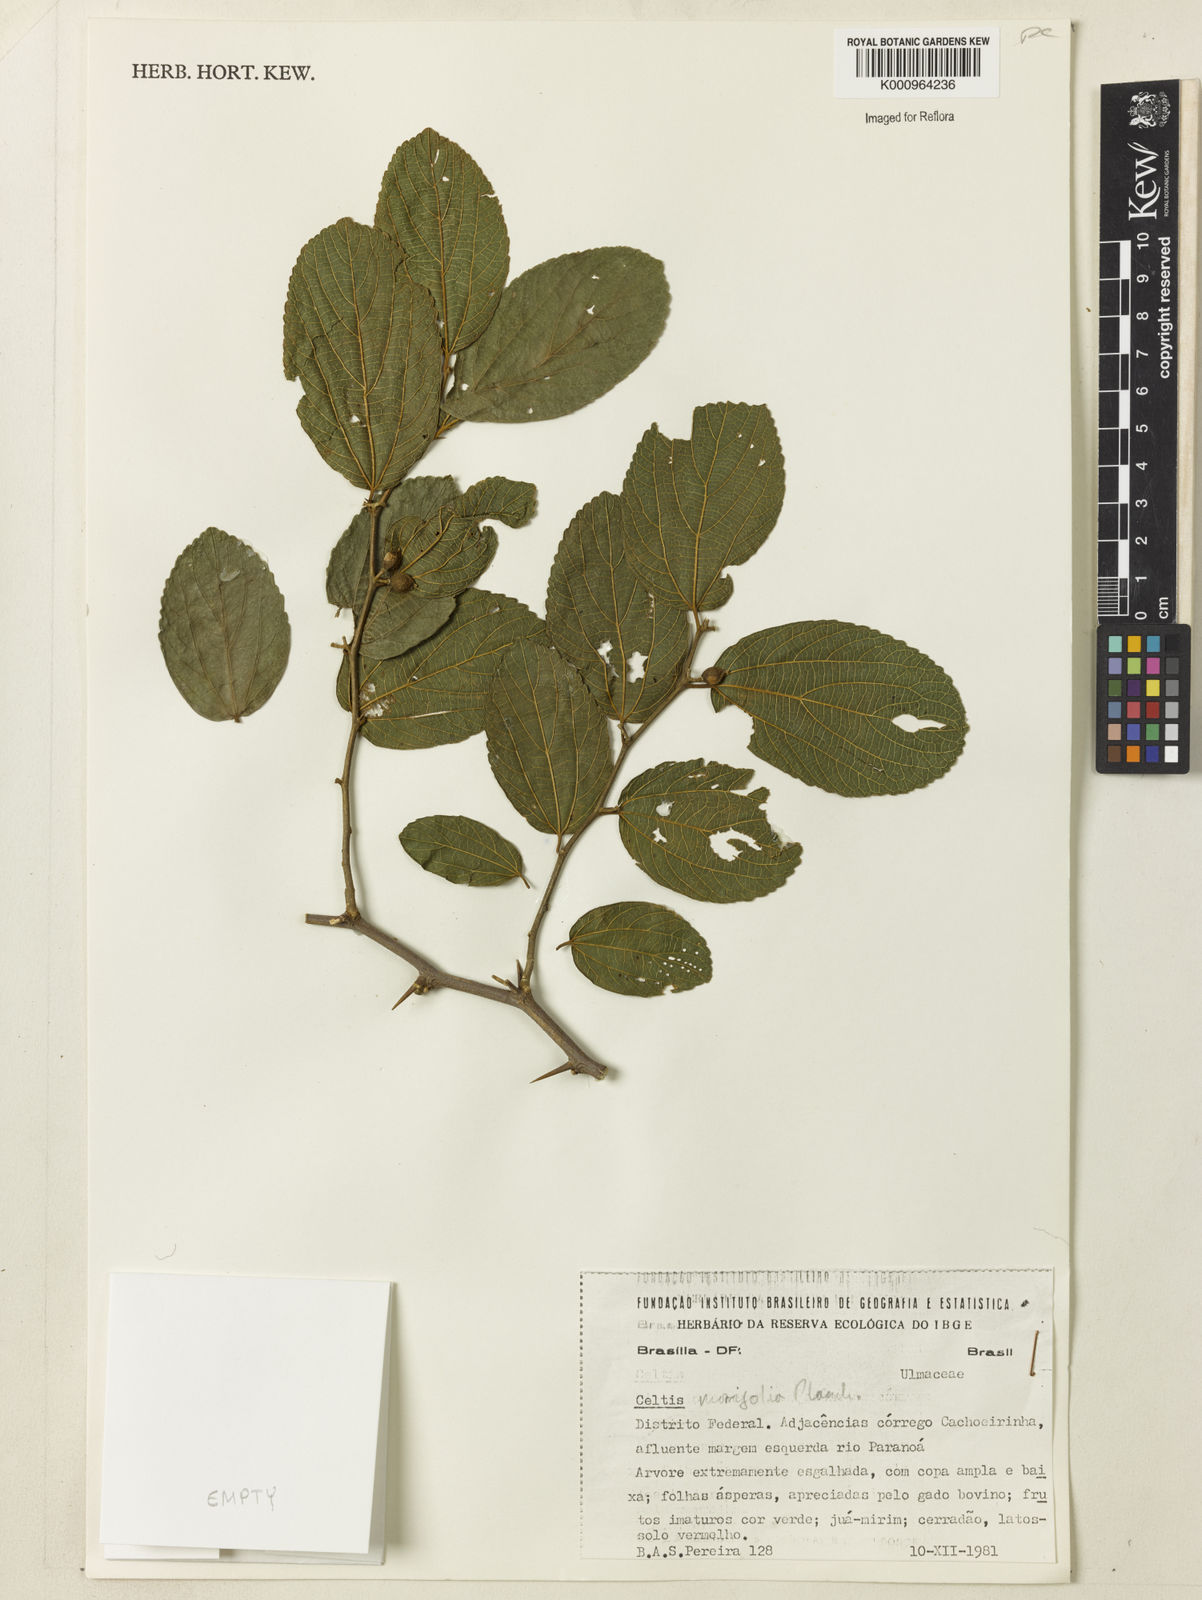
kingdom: Plantae
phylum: Tracheophyta
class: Magnoliopsida
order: Rosales
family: Cannabaceae
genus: Celtis
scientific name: Celtis iguanaea
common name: Iguana hackberry
